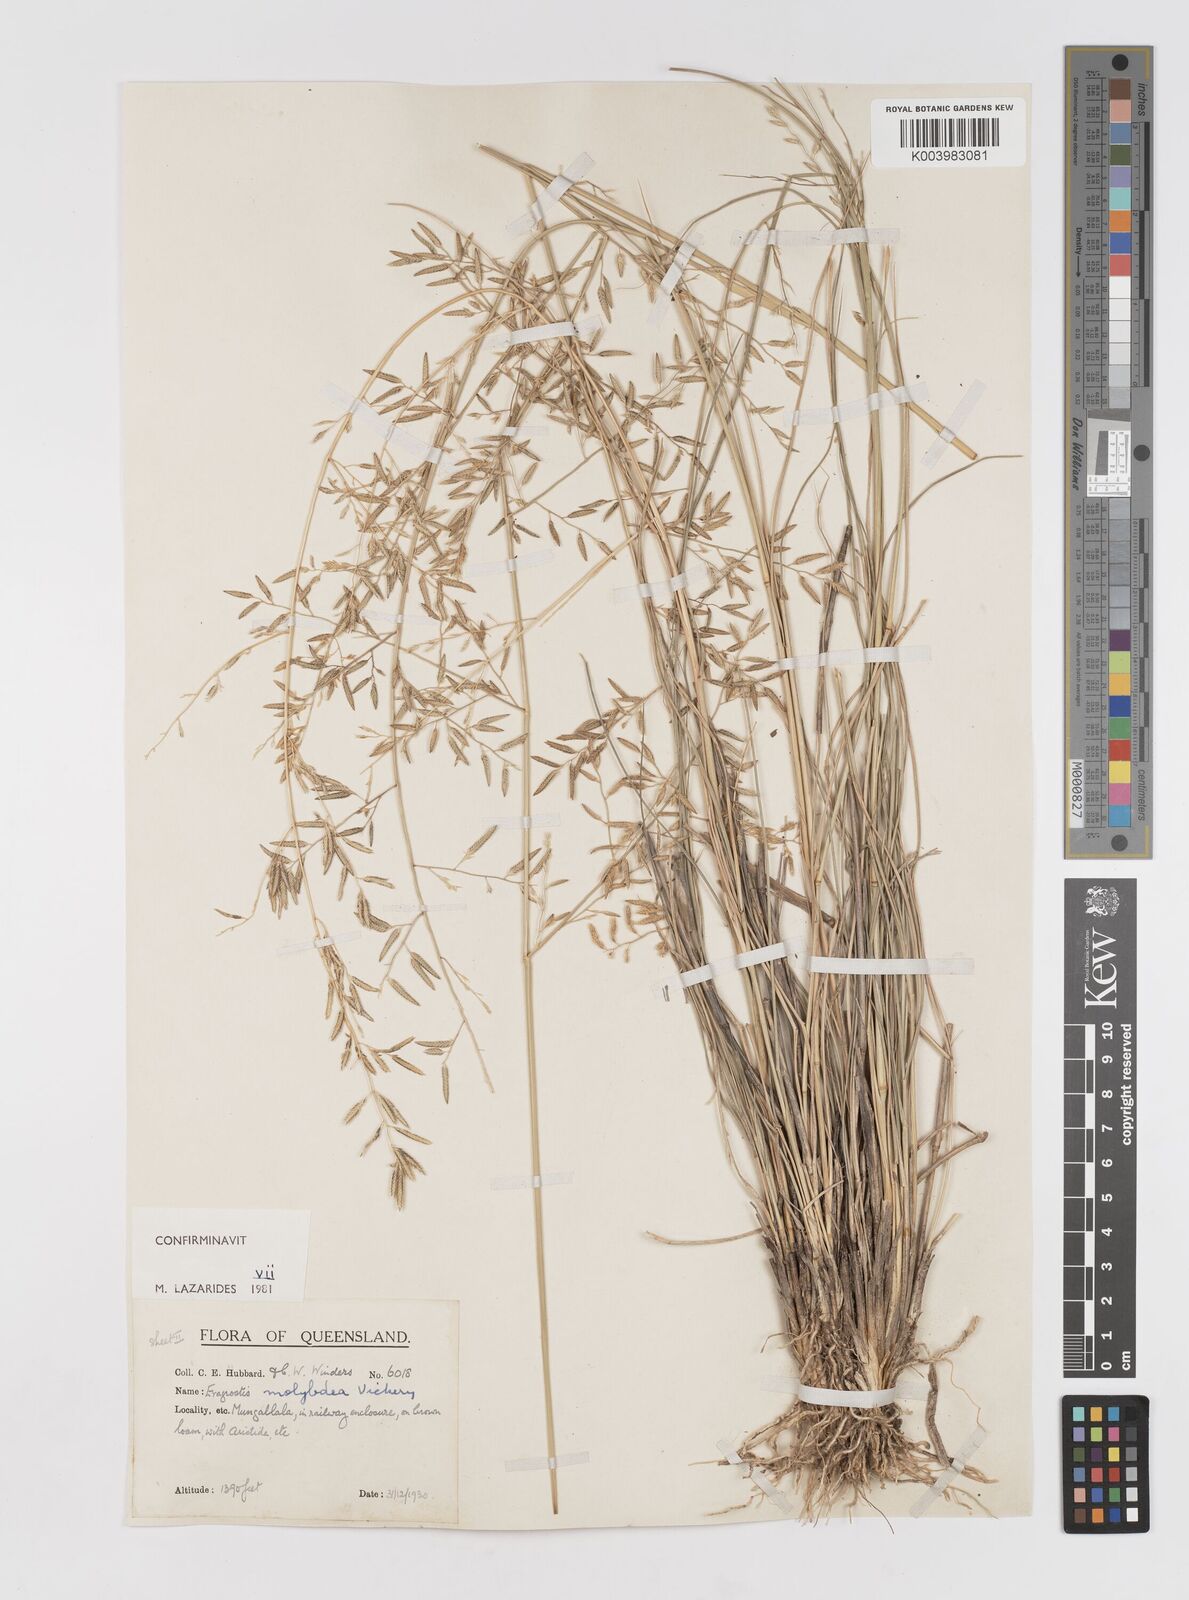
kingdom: Plantae
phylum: Tracheophyta
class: Liliopsida
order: Poales
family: Poaceae
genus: Eragrostis
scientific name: Eragrostis leptostachya
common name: Australian lovegrass
